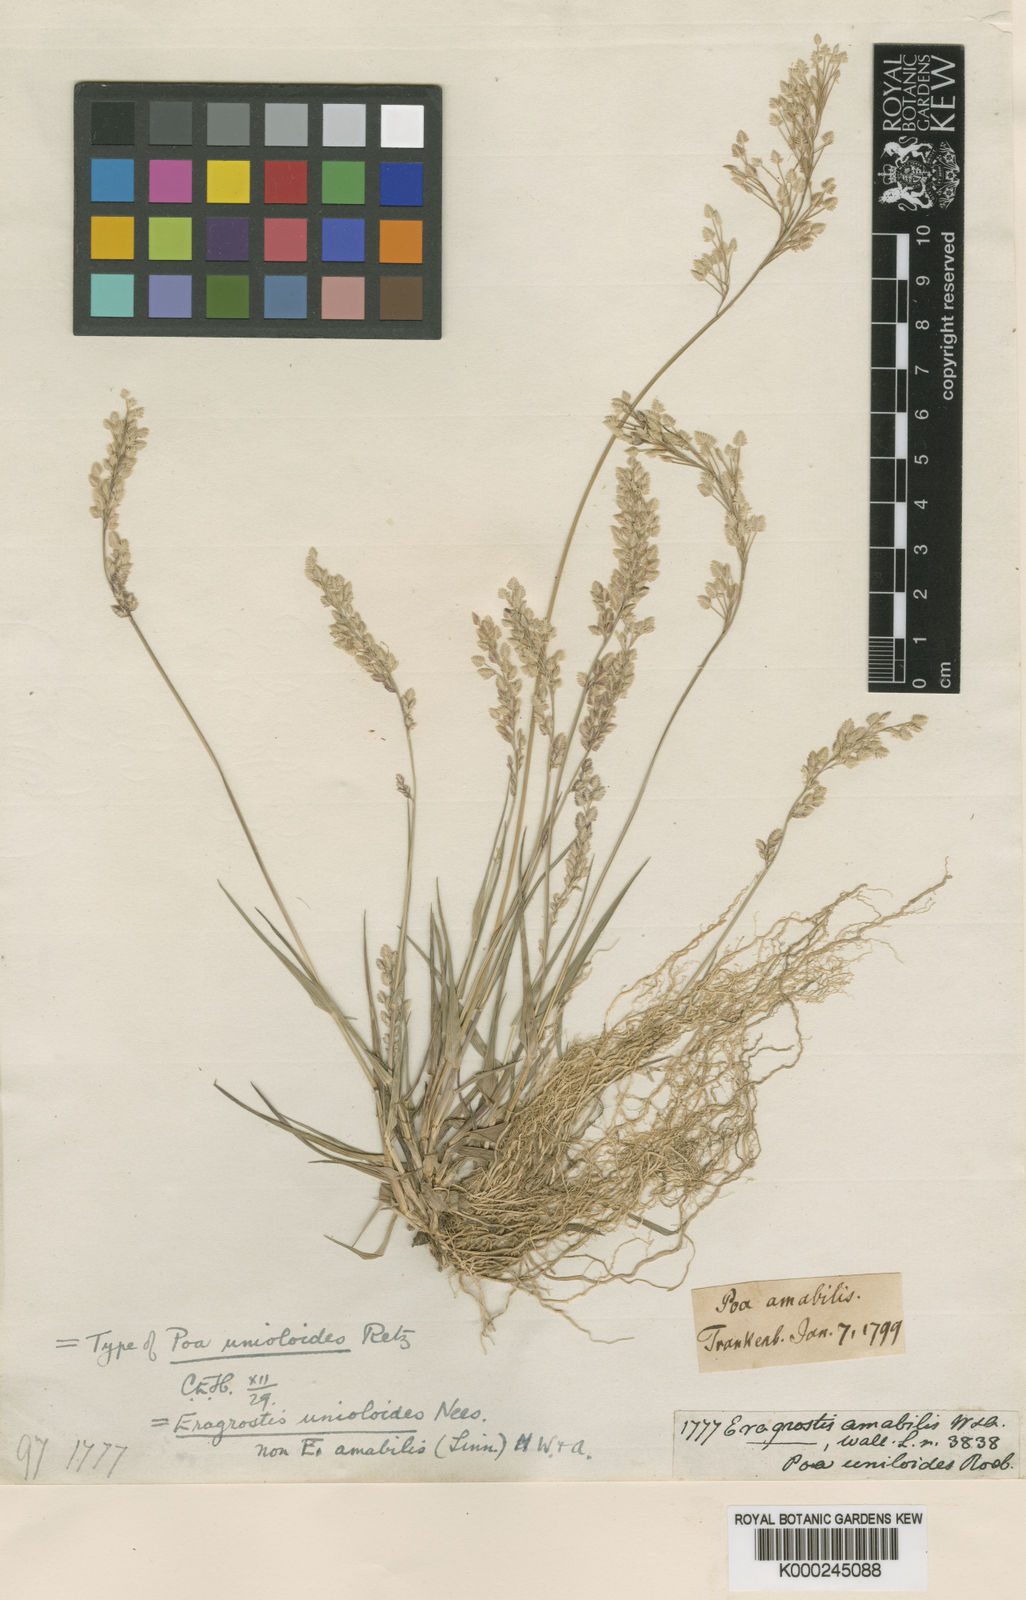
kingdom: Plantae
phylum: Tracheophyta
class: Liliopsida
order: Poales
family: Poaceae
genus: Eragrostis
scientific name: Eragrostis unioloides
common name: Chinese lovegrass
